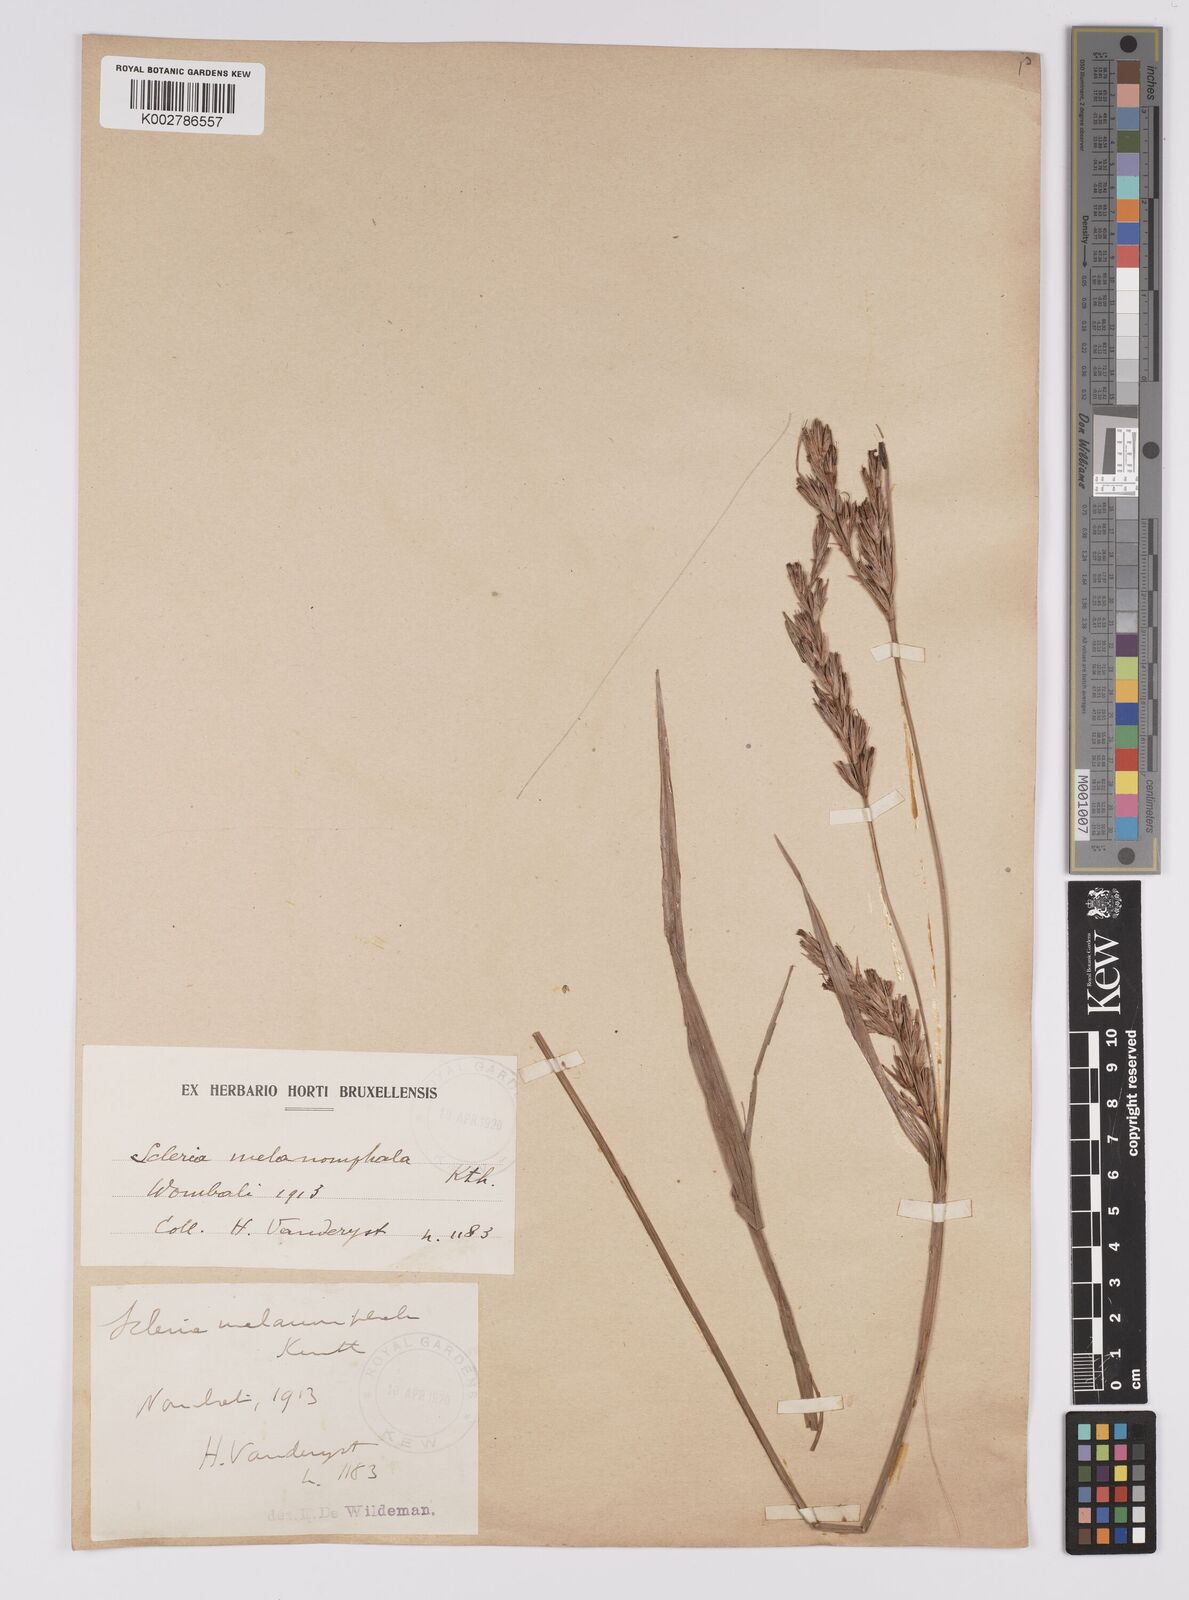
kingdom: Plantae
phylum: Tracheophyta
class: Liliopsida
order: Poales
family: Cyperaceae
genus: Scleria
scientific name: Scleria melanomphala
